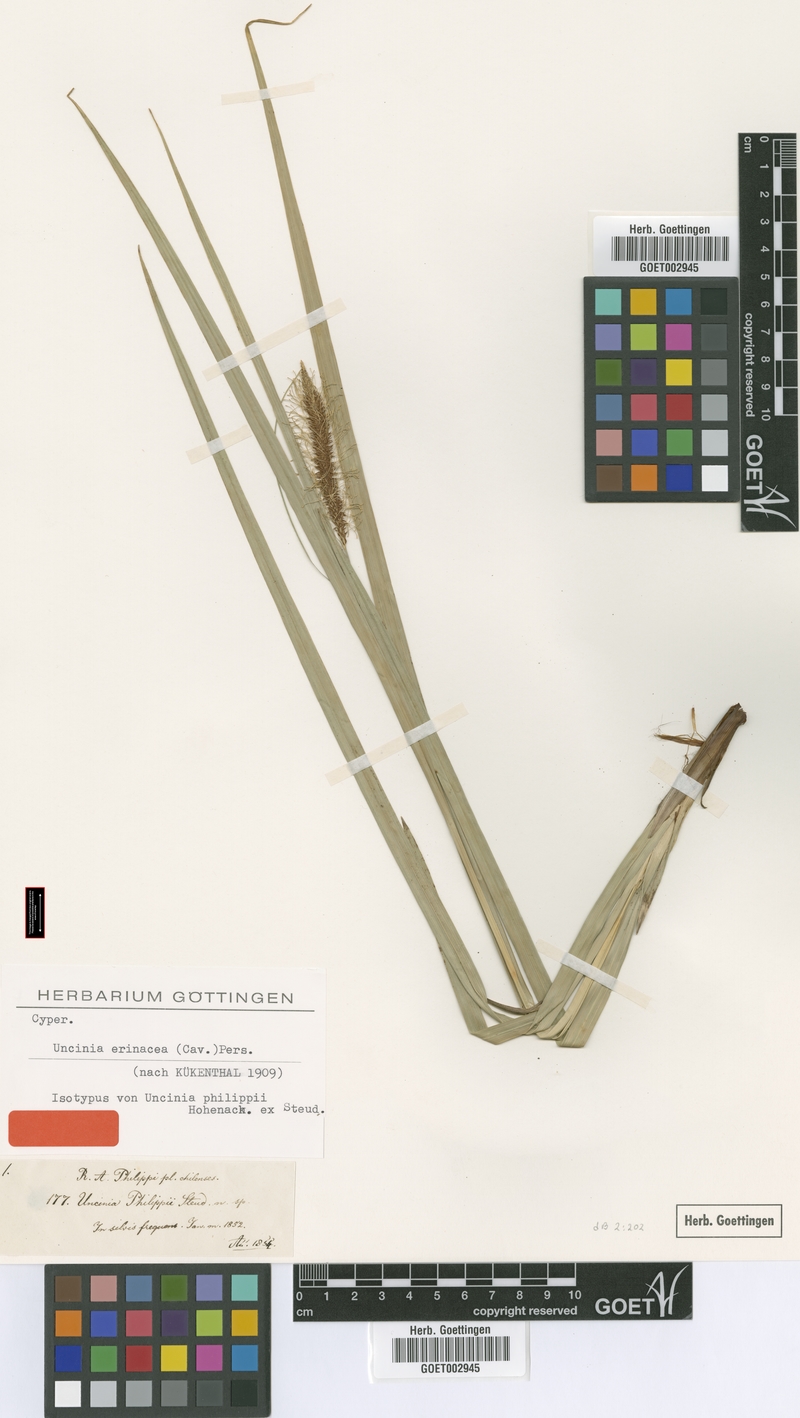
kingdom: Plantae
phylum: Tracheophyta
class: Liliopsida
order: Poales
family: Cyperaceae
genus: Carex
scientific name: Carex erinacea
